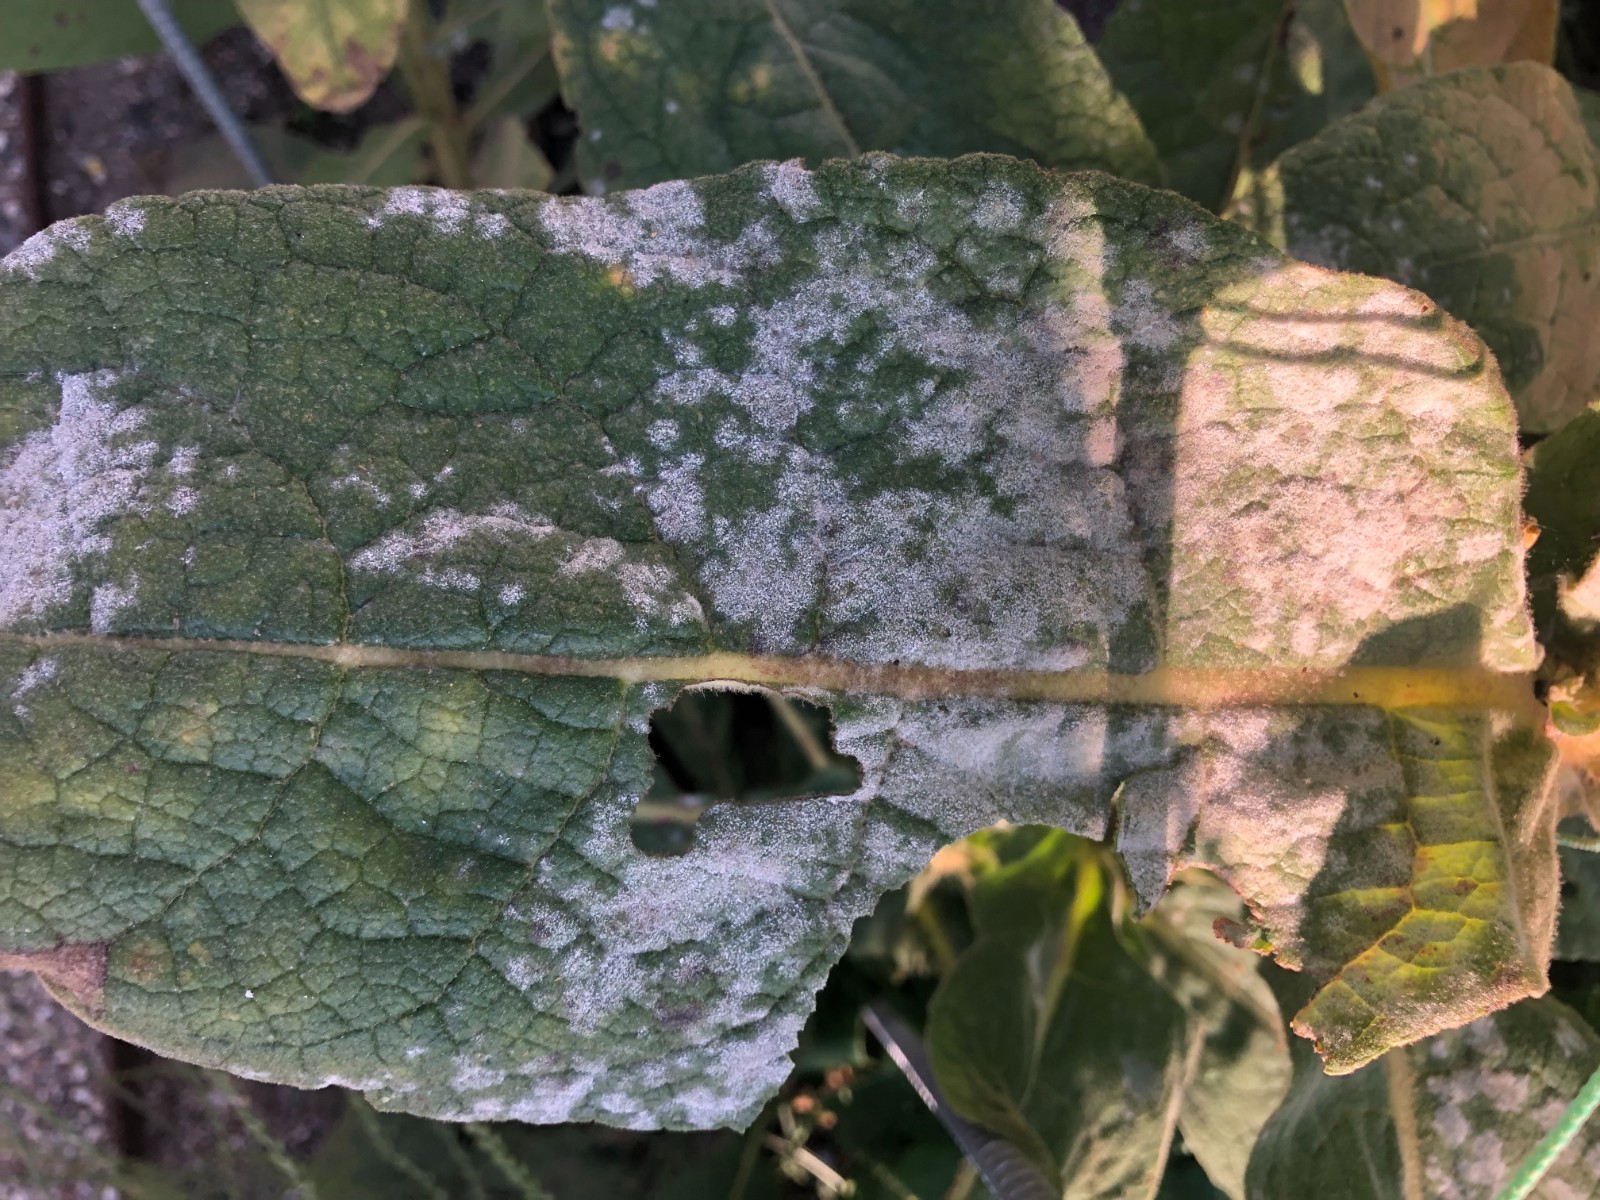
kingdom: Fungi
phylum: Ascomycota
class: Leotiomycetes
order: Helotiales
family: Erysiphaceae
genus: Golovinomyces
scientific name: Golovinomyces verbasci
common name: kongelys-meldug
